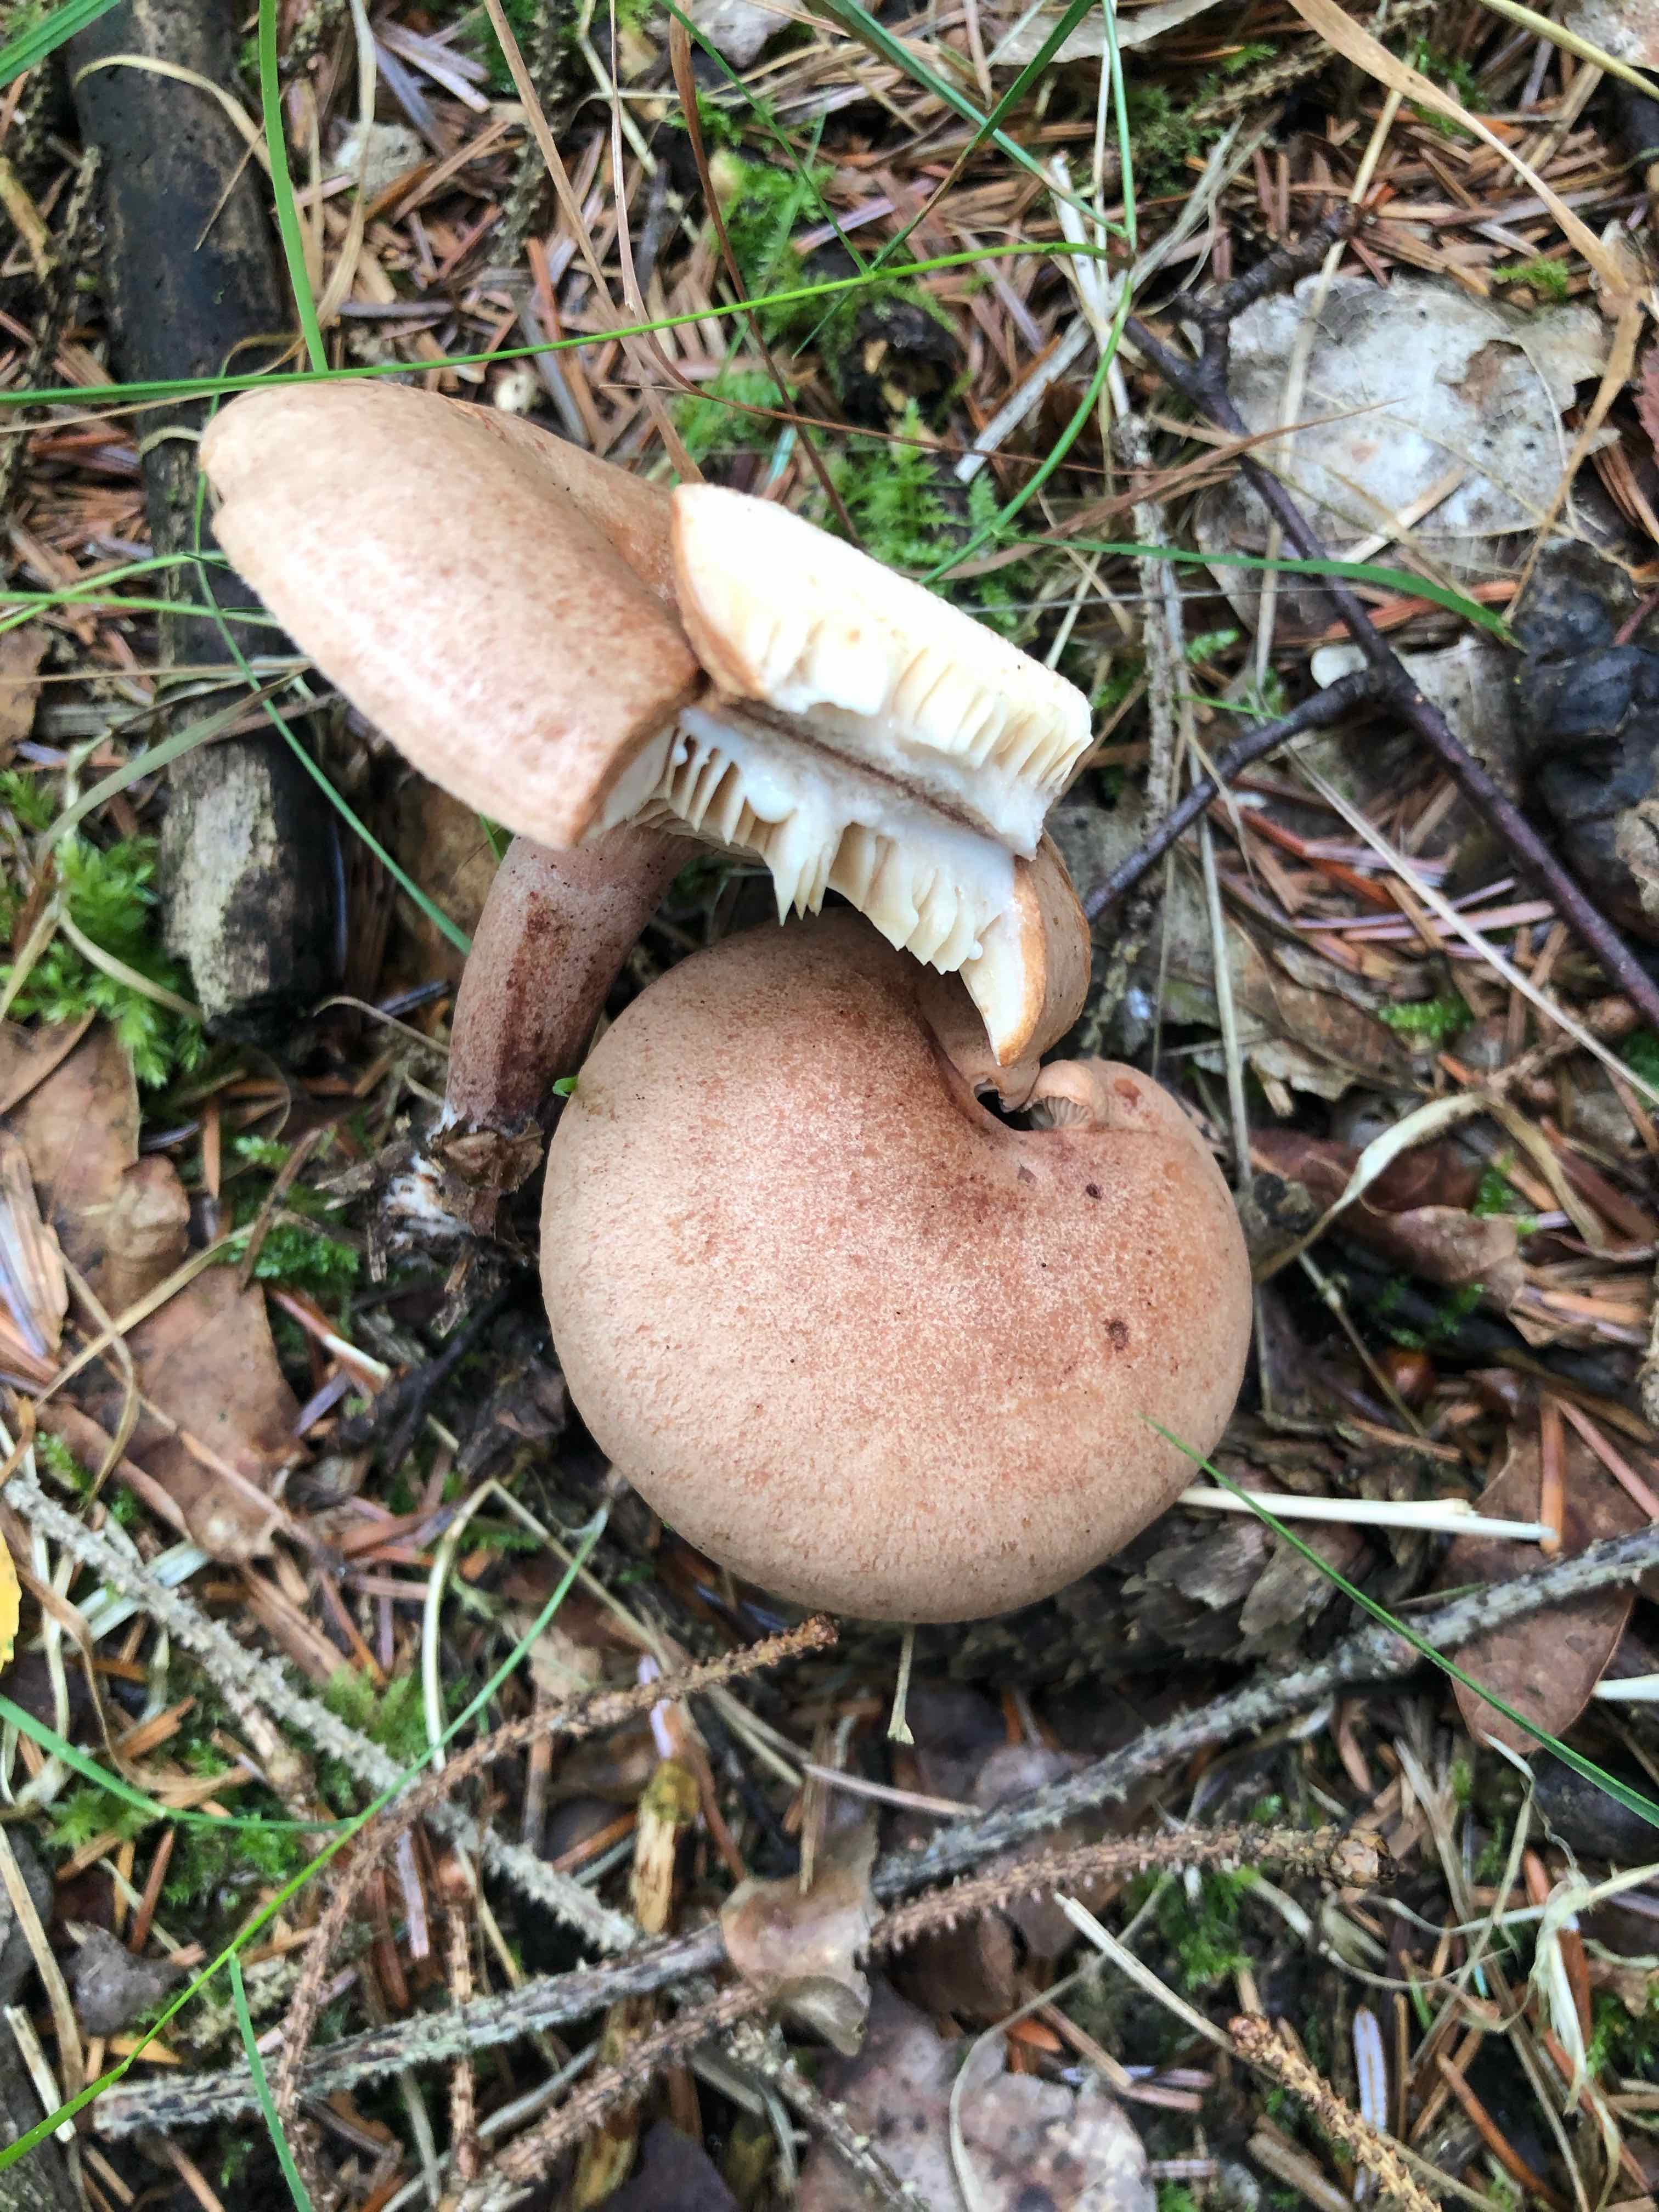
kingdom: Fungi
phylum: Basidiomycota
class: Agaricomycetes
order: Russulales
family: Russulaceae
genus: Lactarius
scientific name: Lactarius quietus
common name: ege-mælkehat
